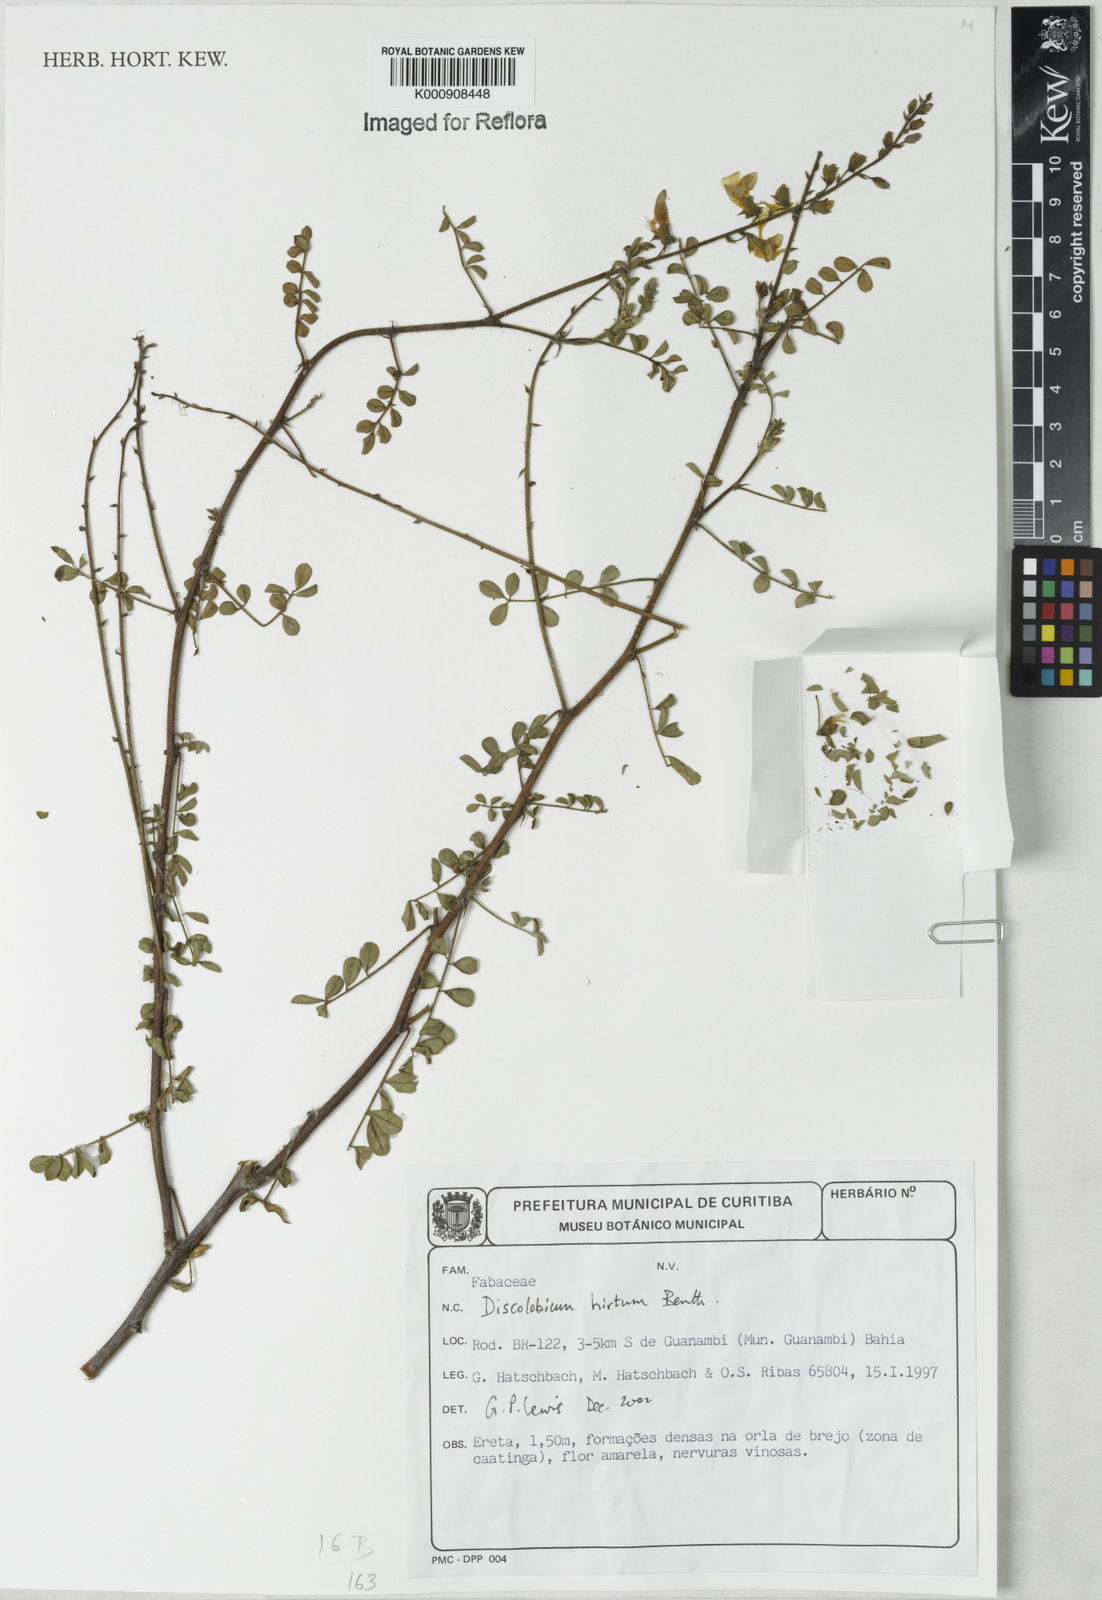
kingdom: Plantae
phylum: Tracheophyta
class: Magnoliopsida
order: Fabales
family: Fabaceae
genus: Discolobium
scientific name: Discolobium hirtum
